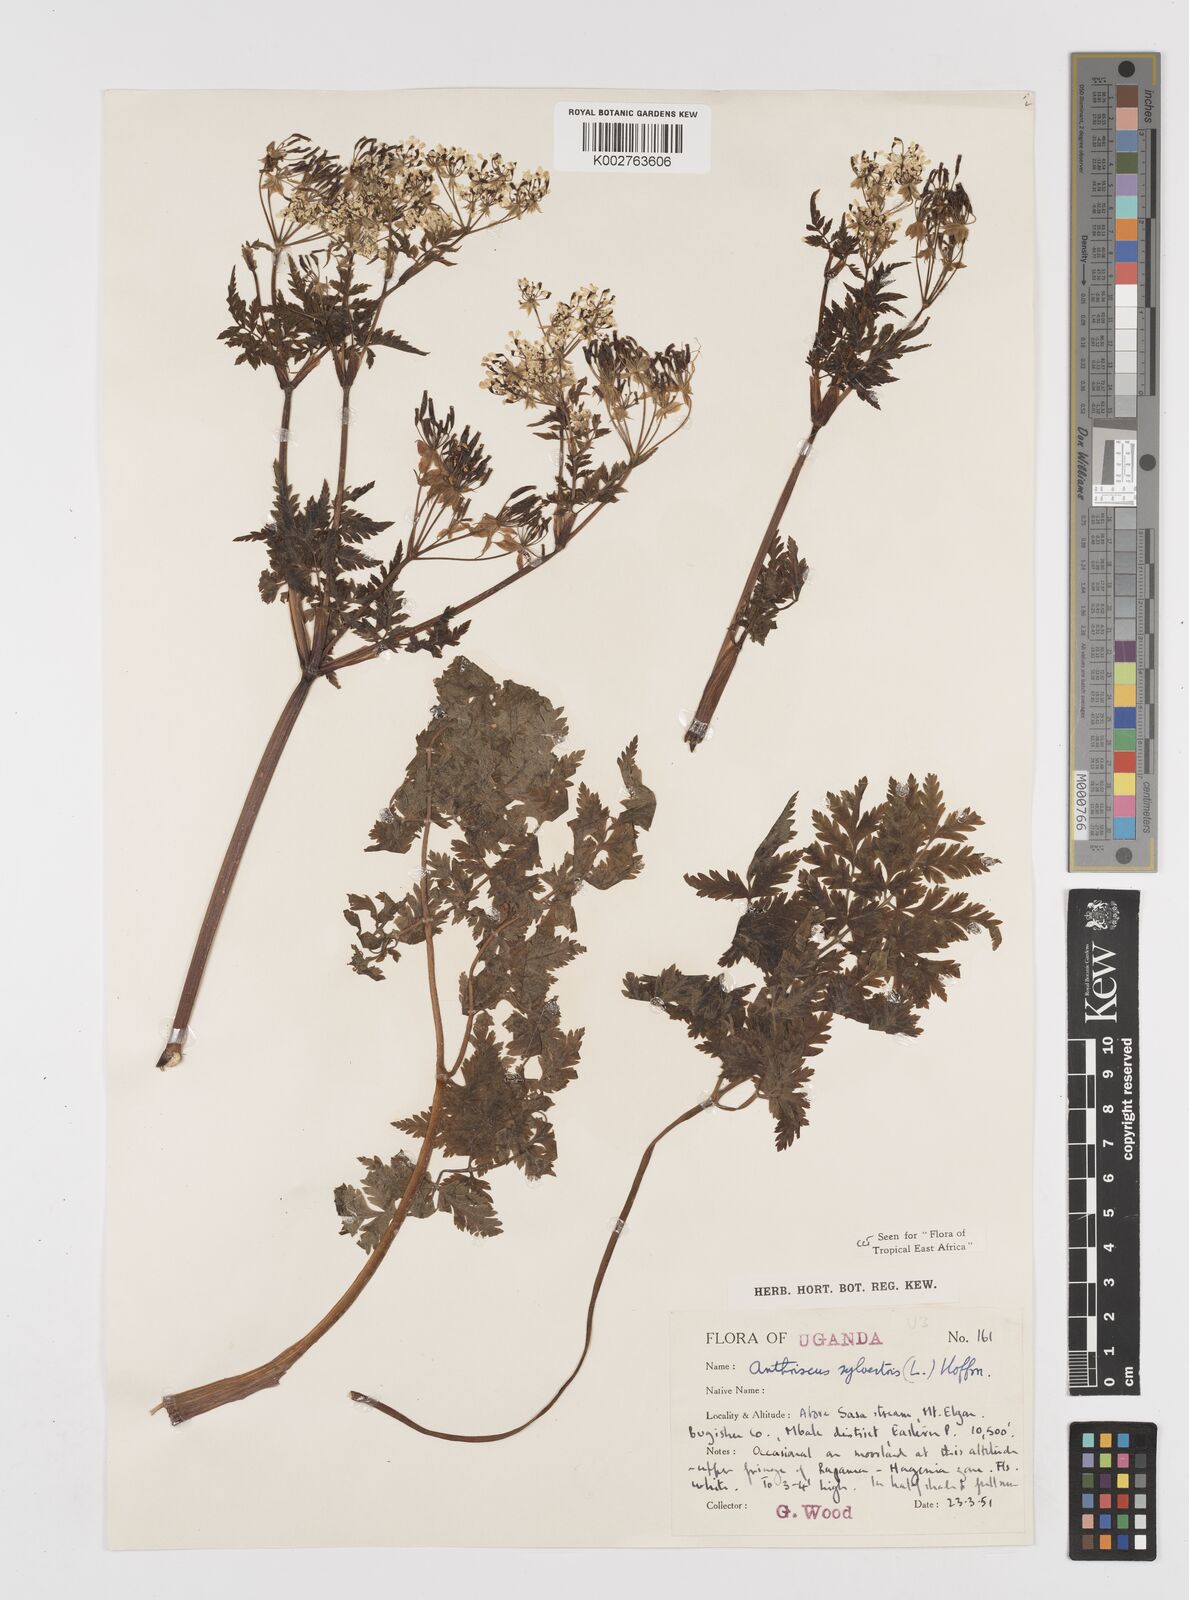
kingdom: Plantae
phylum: Tracheophyta
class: Magnoliopsida
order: Apiales
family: Apiaceae
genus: Anthriscus
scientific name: Anthriscus sylvestris
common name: Cow parsley
